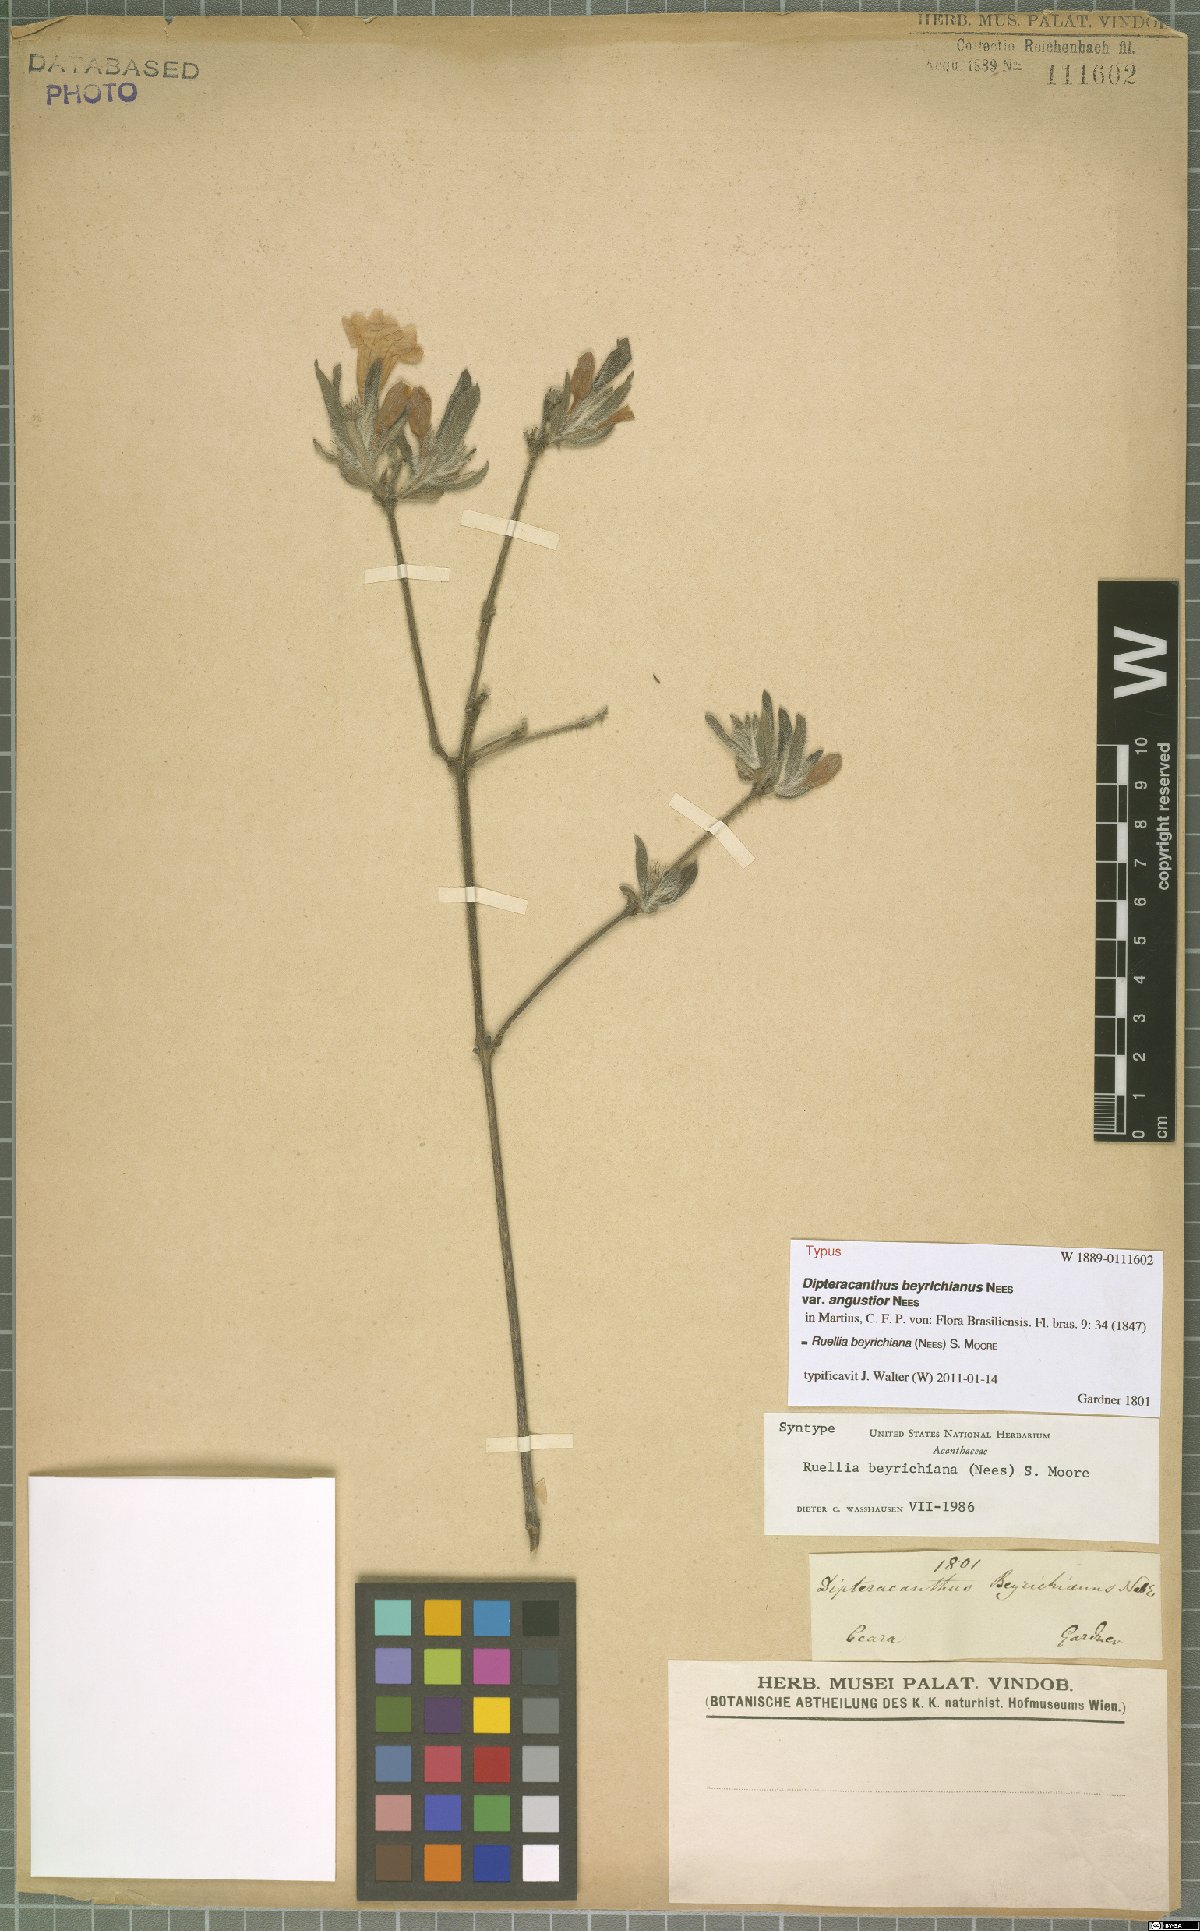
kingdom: Plantae
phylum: Tracheophyta
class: Magnoliopsida
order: Lamiales
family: Acanthaceae
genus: Ruellia
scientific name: Ruellia beyrichiana
